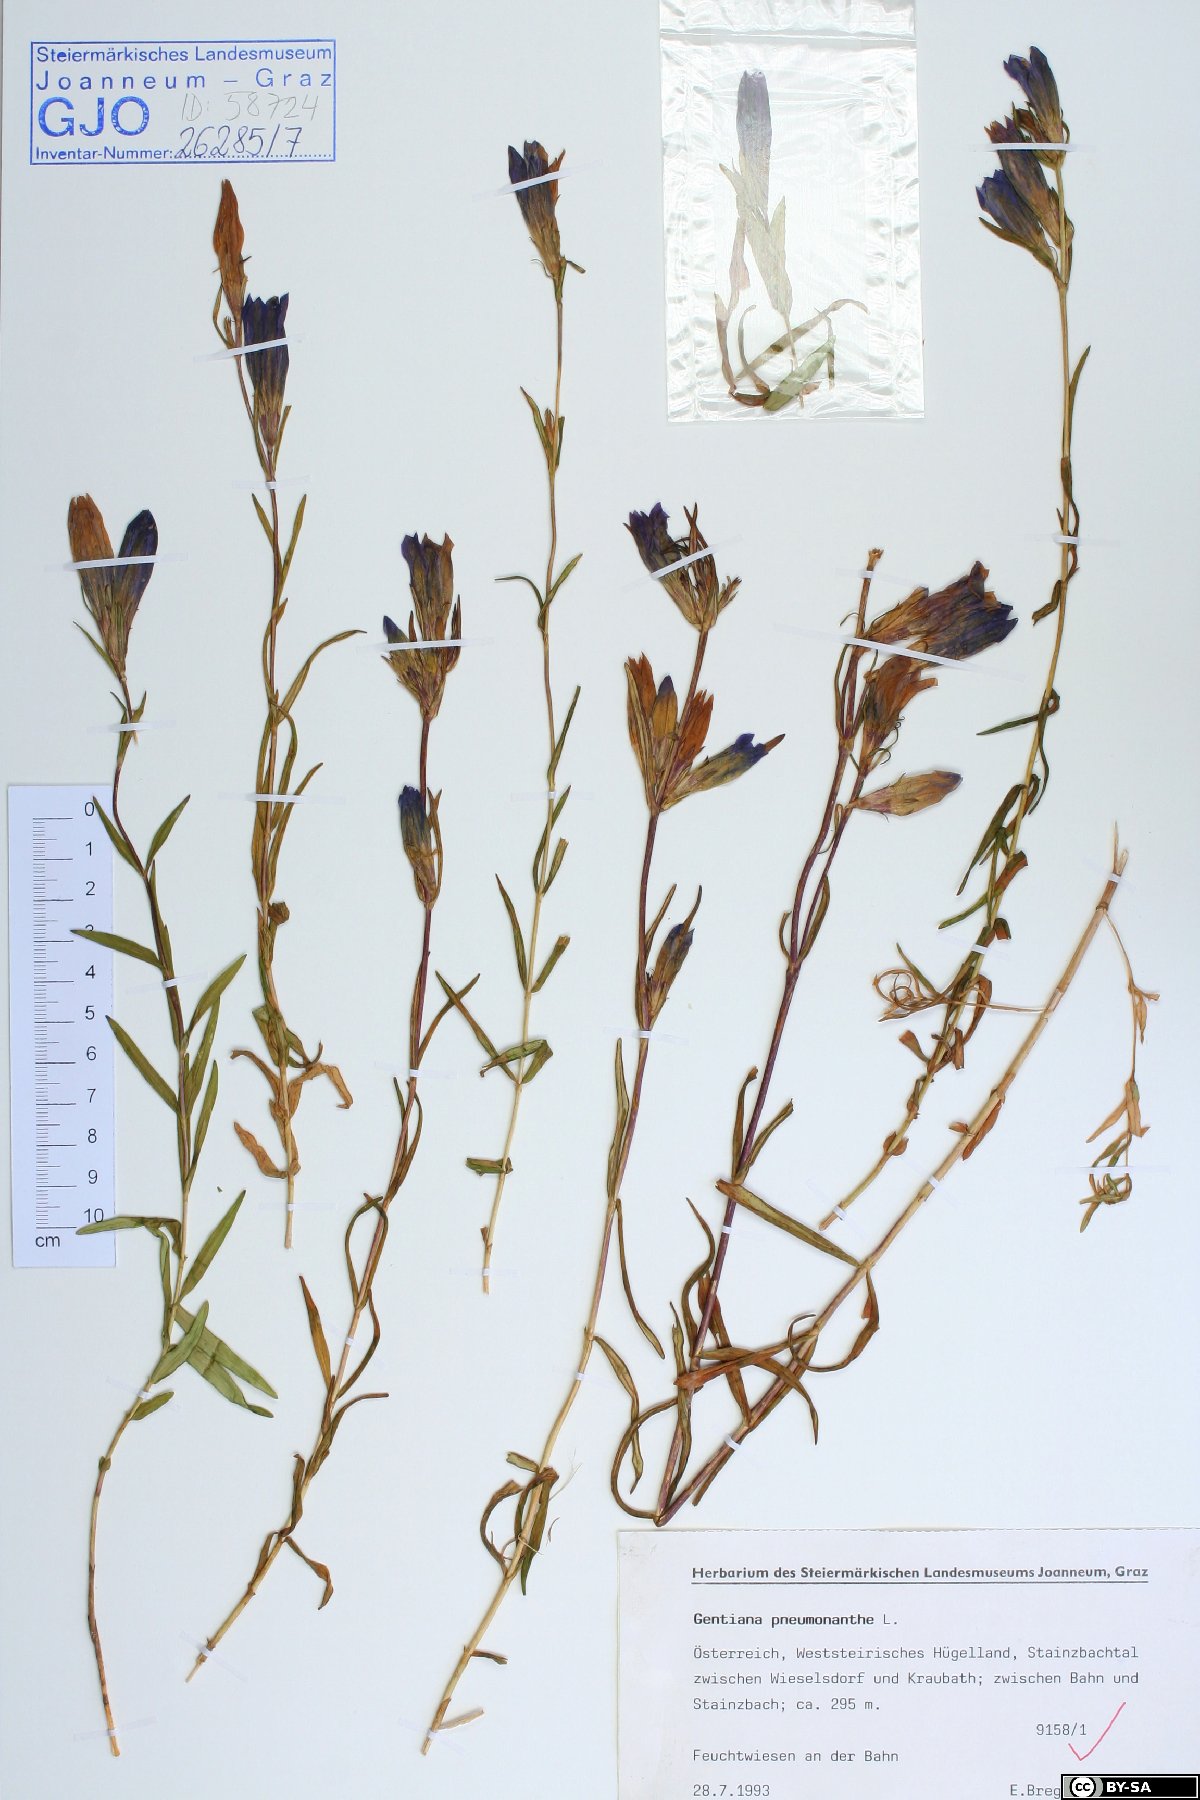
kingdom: Plantae
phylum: Tracheophyta
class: Magnoliopsida
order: Gentianales
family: Gentianaceae
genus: Gentiana
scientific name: Gentiana pneumonanthe
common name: Marsh gentian
